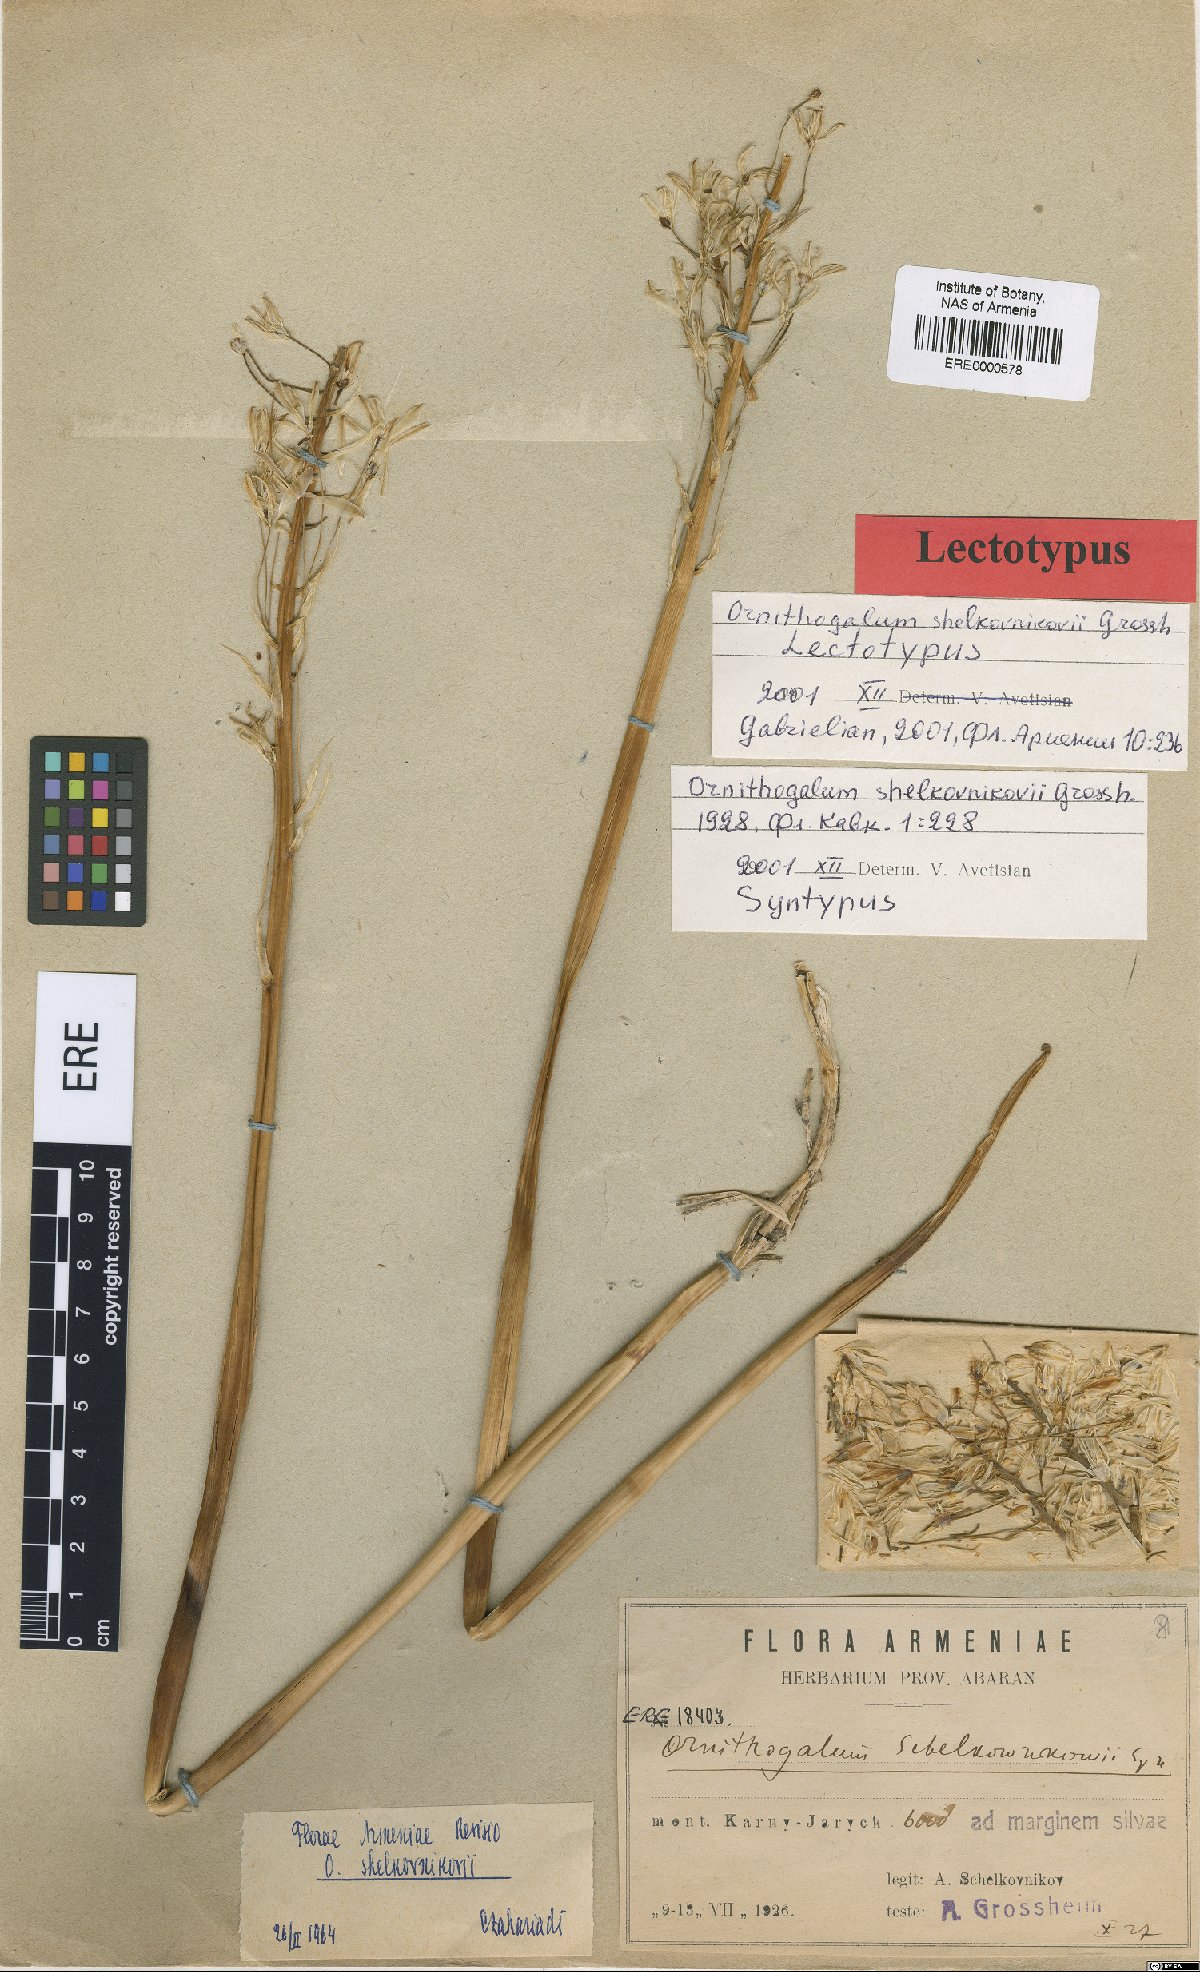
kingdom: Plantae
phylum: Tracheophyta
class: Liliopsida
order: Asparagales
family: Asparagaceae
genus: Ornithogalum
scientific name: Ornithogalum arcuatum
